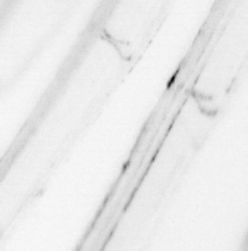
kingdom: Animalia
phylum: Chordata
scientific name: Chordata
